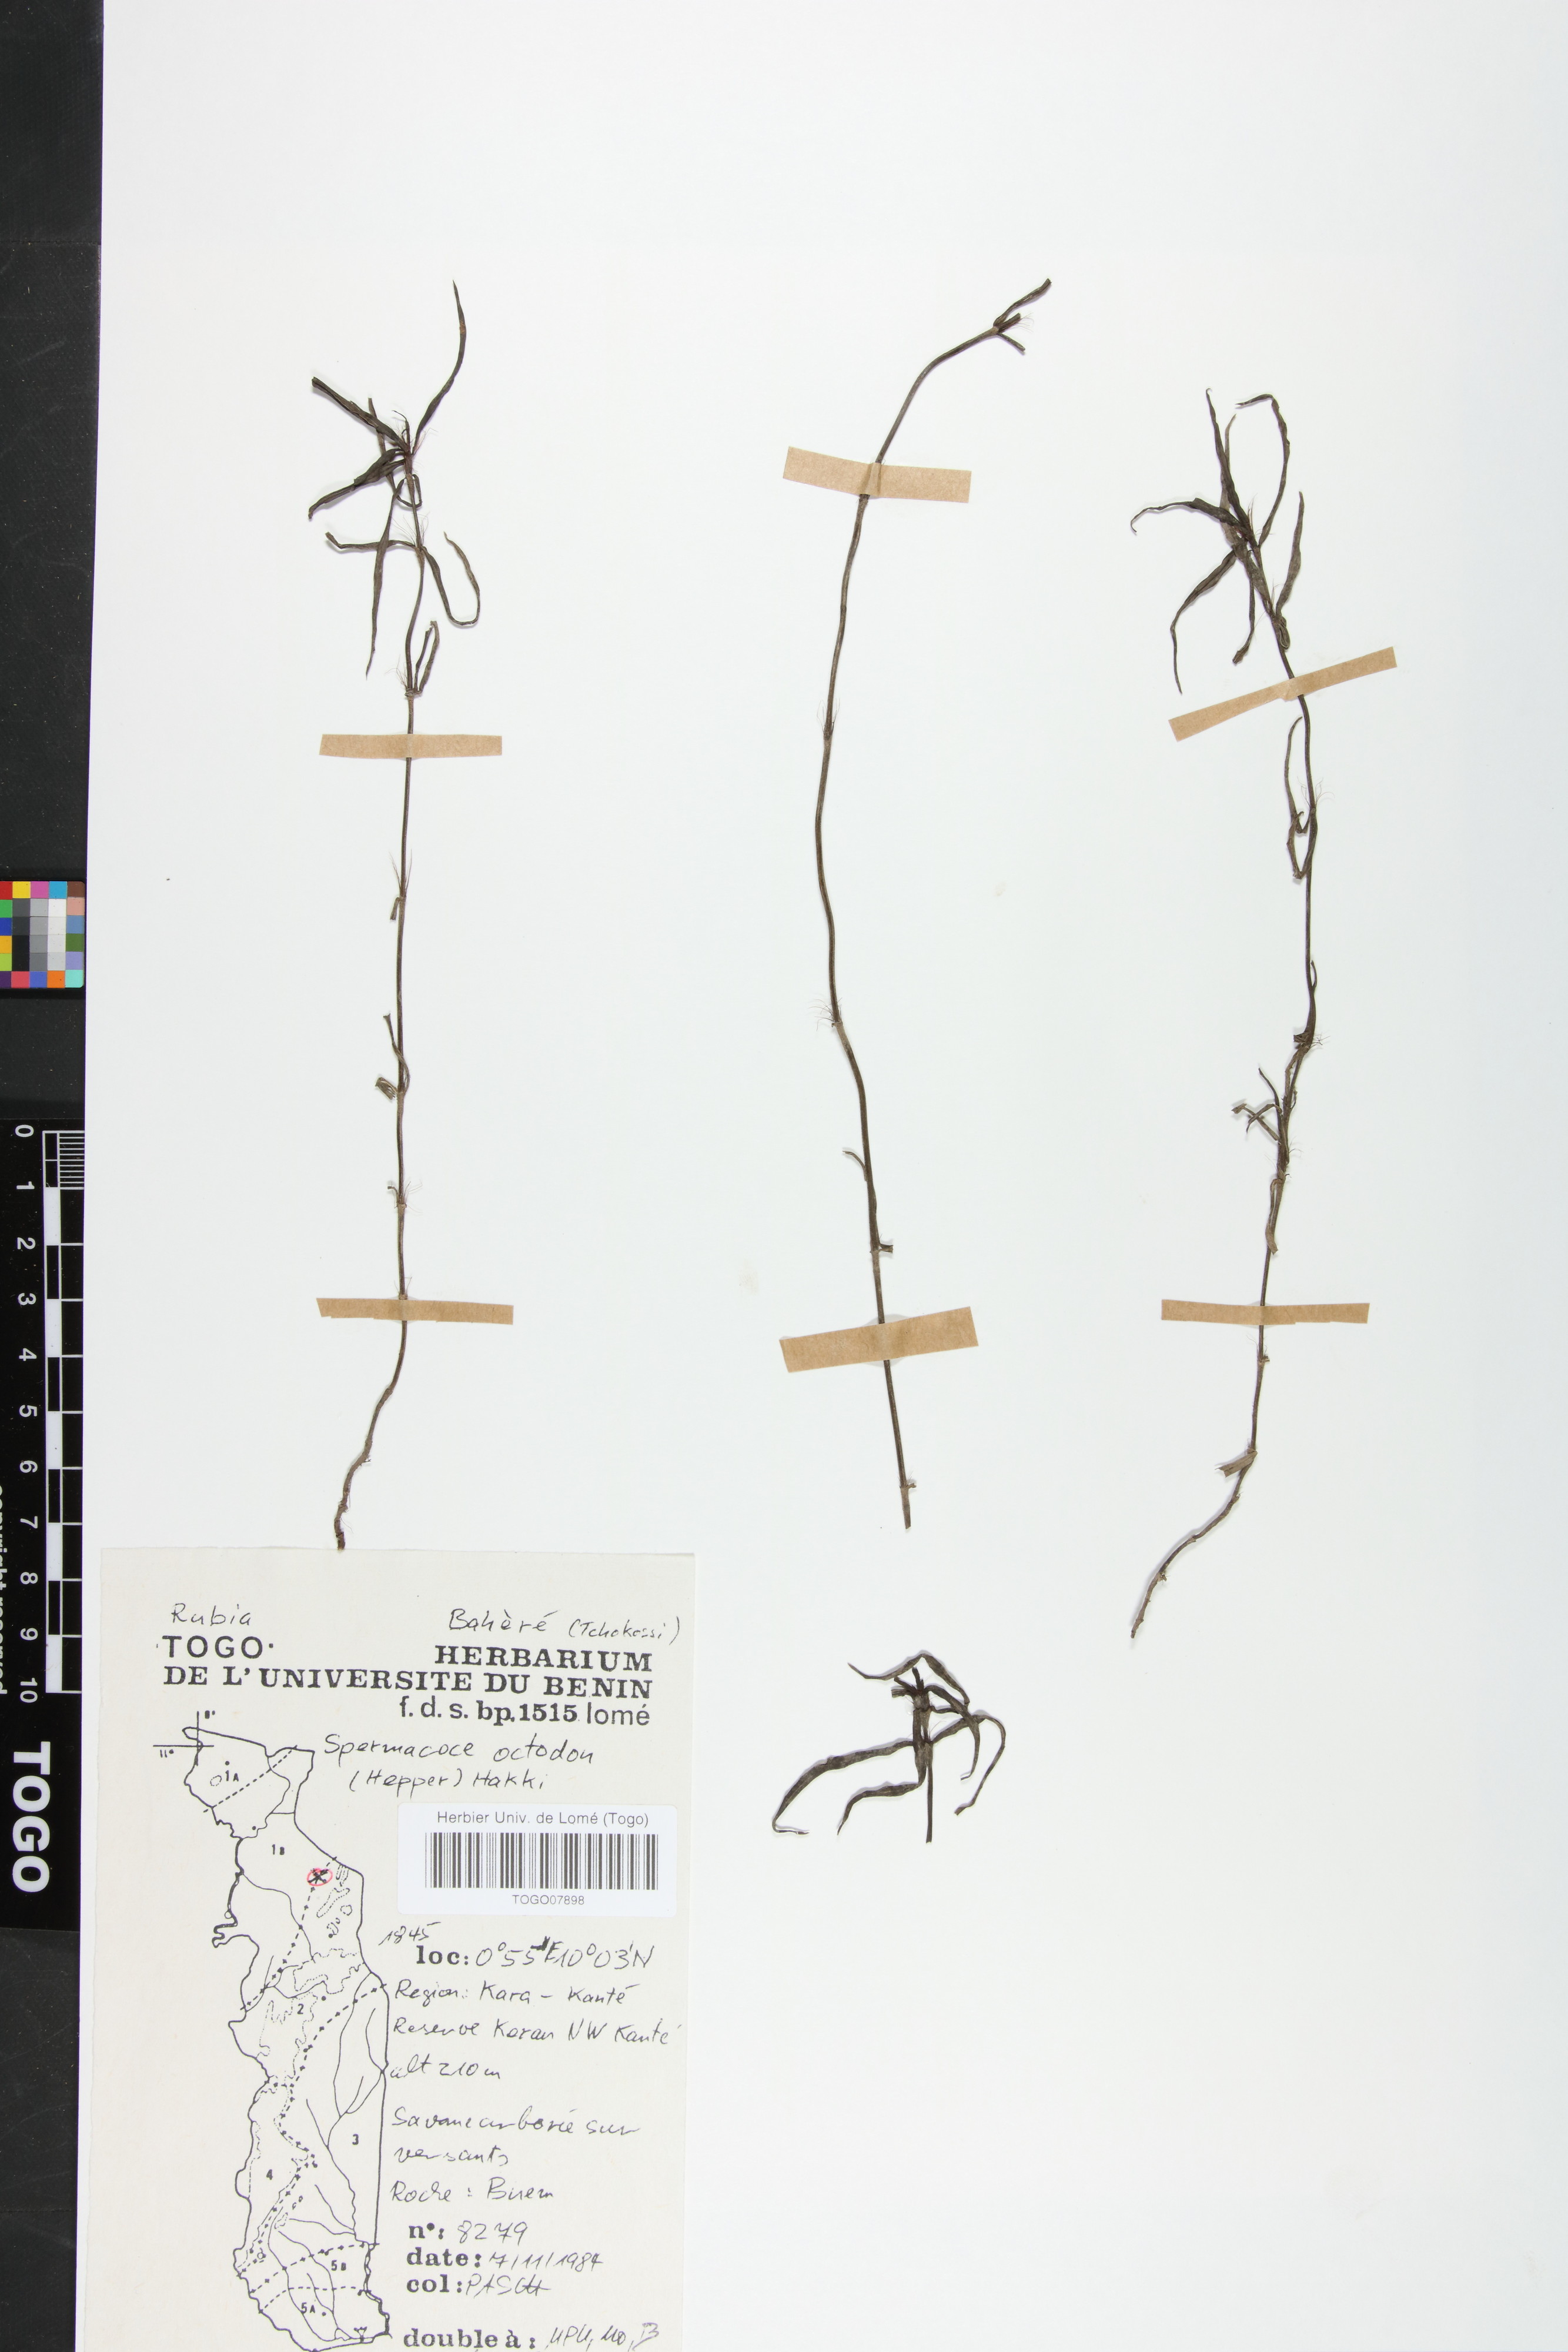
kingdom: Plantae
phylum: Tracheophyta
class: Magnoliopsida
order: Gentianales
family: Rubiaceae
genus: Spermacoce
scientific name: Spermacoce octodon
